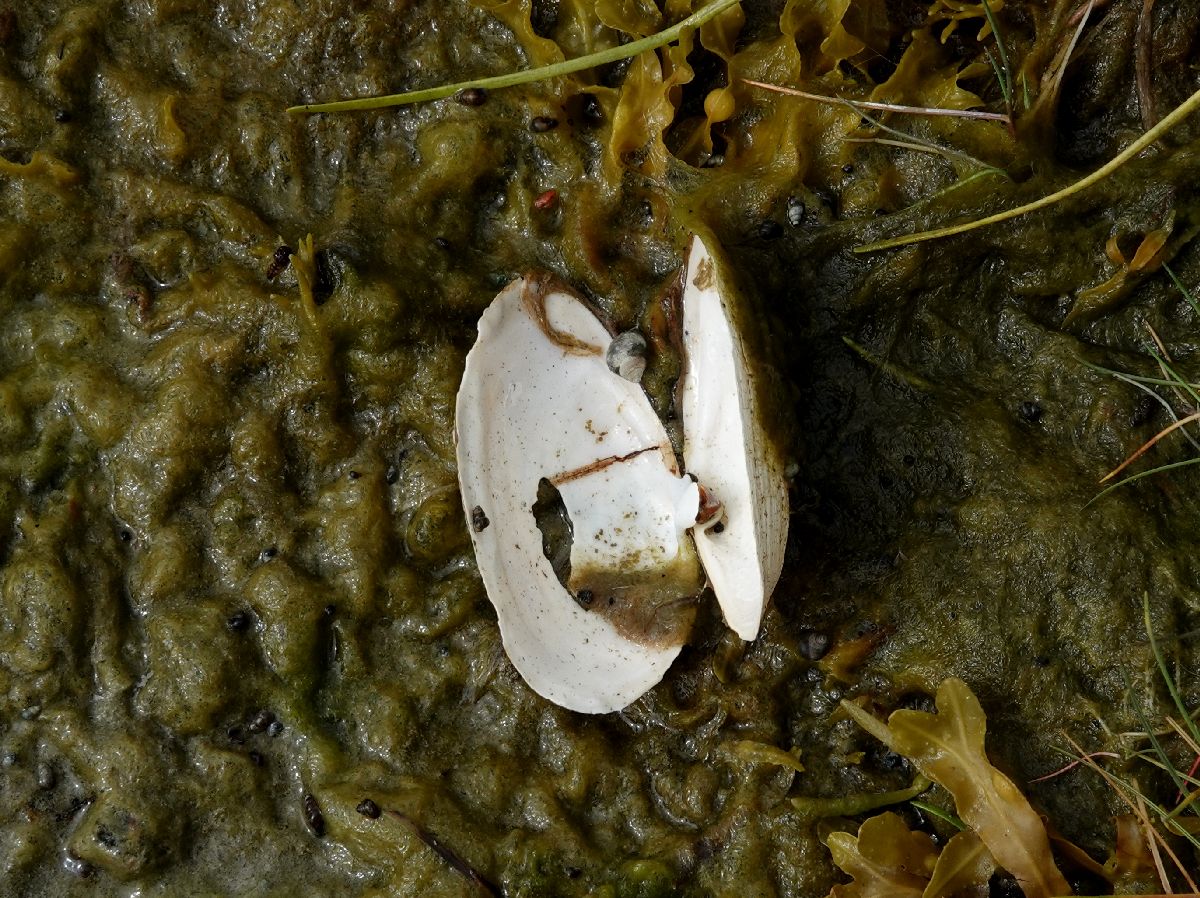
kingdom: Animalia
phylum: Chordata
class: Aves
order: Gruiformes
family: Gruidae
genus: Grus
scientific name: Grus grus
